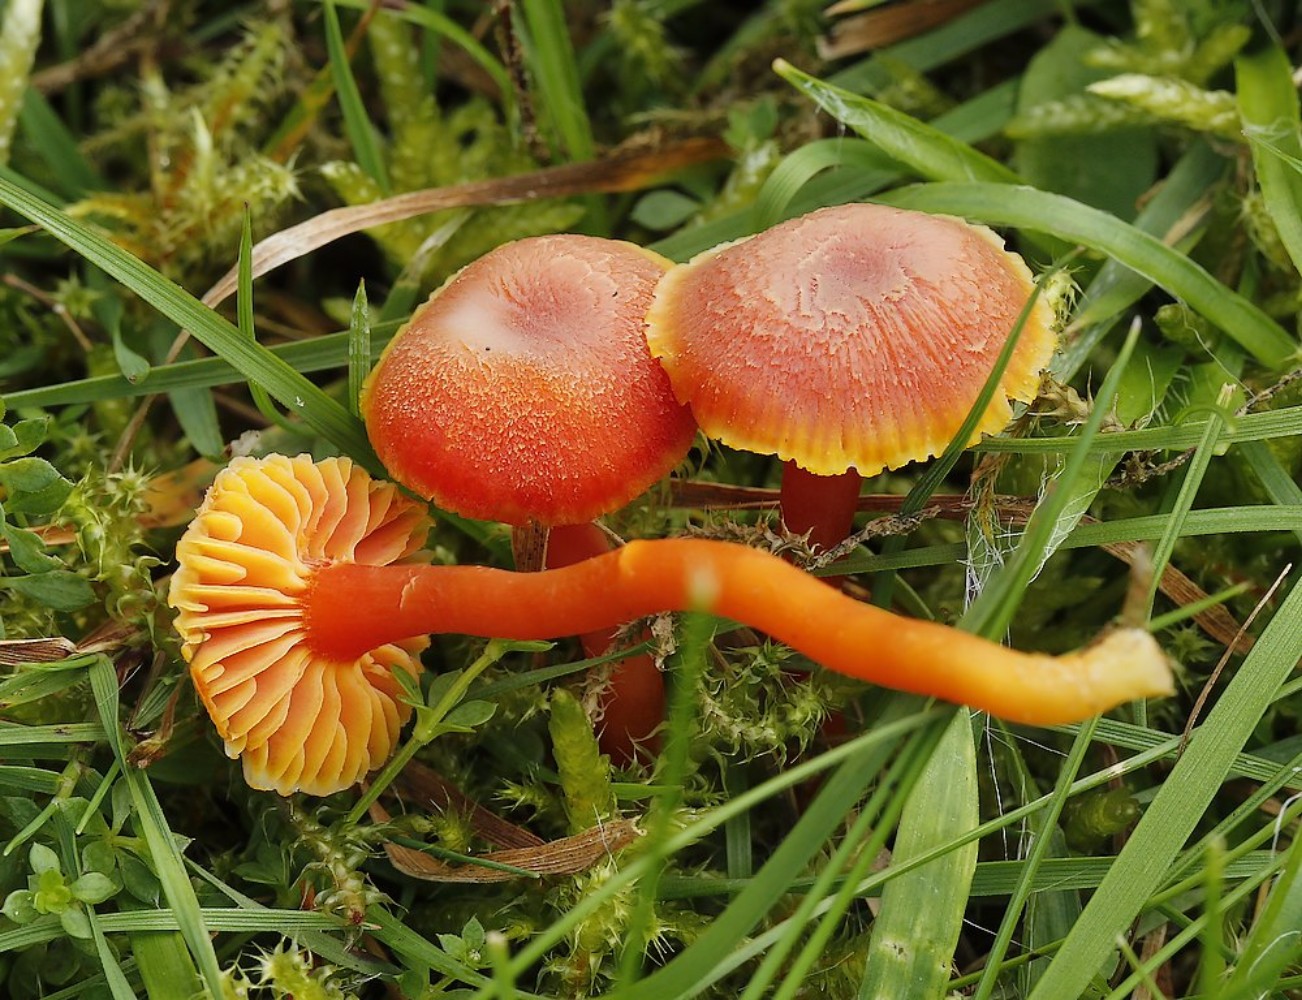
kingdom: Fungi
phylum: Basidiomycota
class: Agaricomycetes
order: Agaricales
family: Hygrophoraceae
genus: Hygrocybe
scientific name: Hygrocybe miniata
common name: mønje-vokshat
